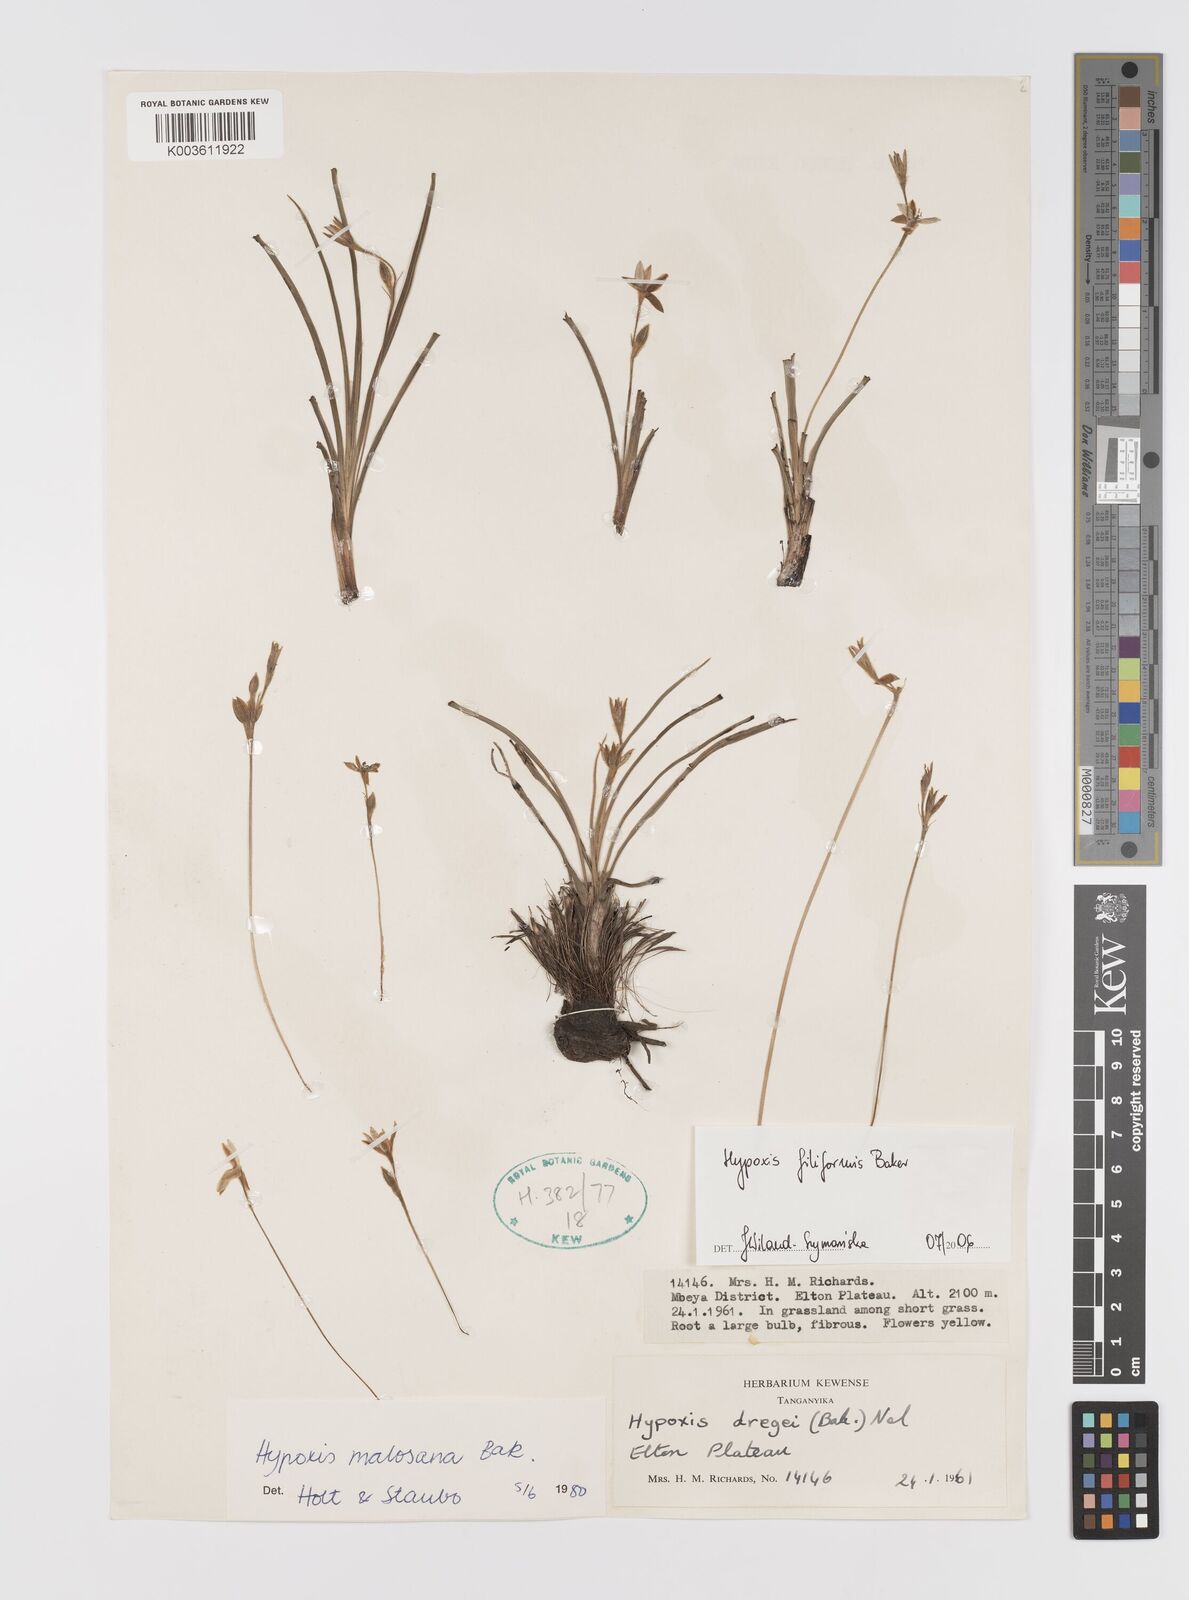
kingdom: Plantae
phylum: Tracheophyta
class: Liliopsida
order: Asparagales
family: Hypoxidaceae
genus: Hypoxis
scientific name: Hypoxis filiformis
